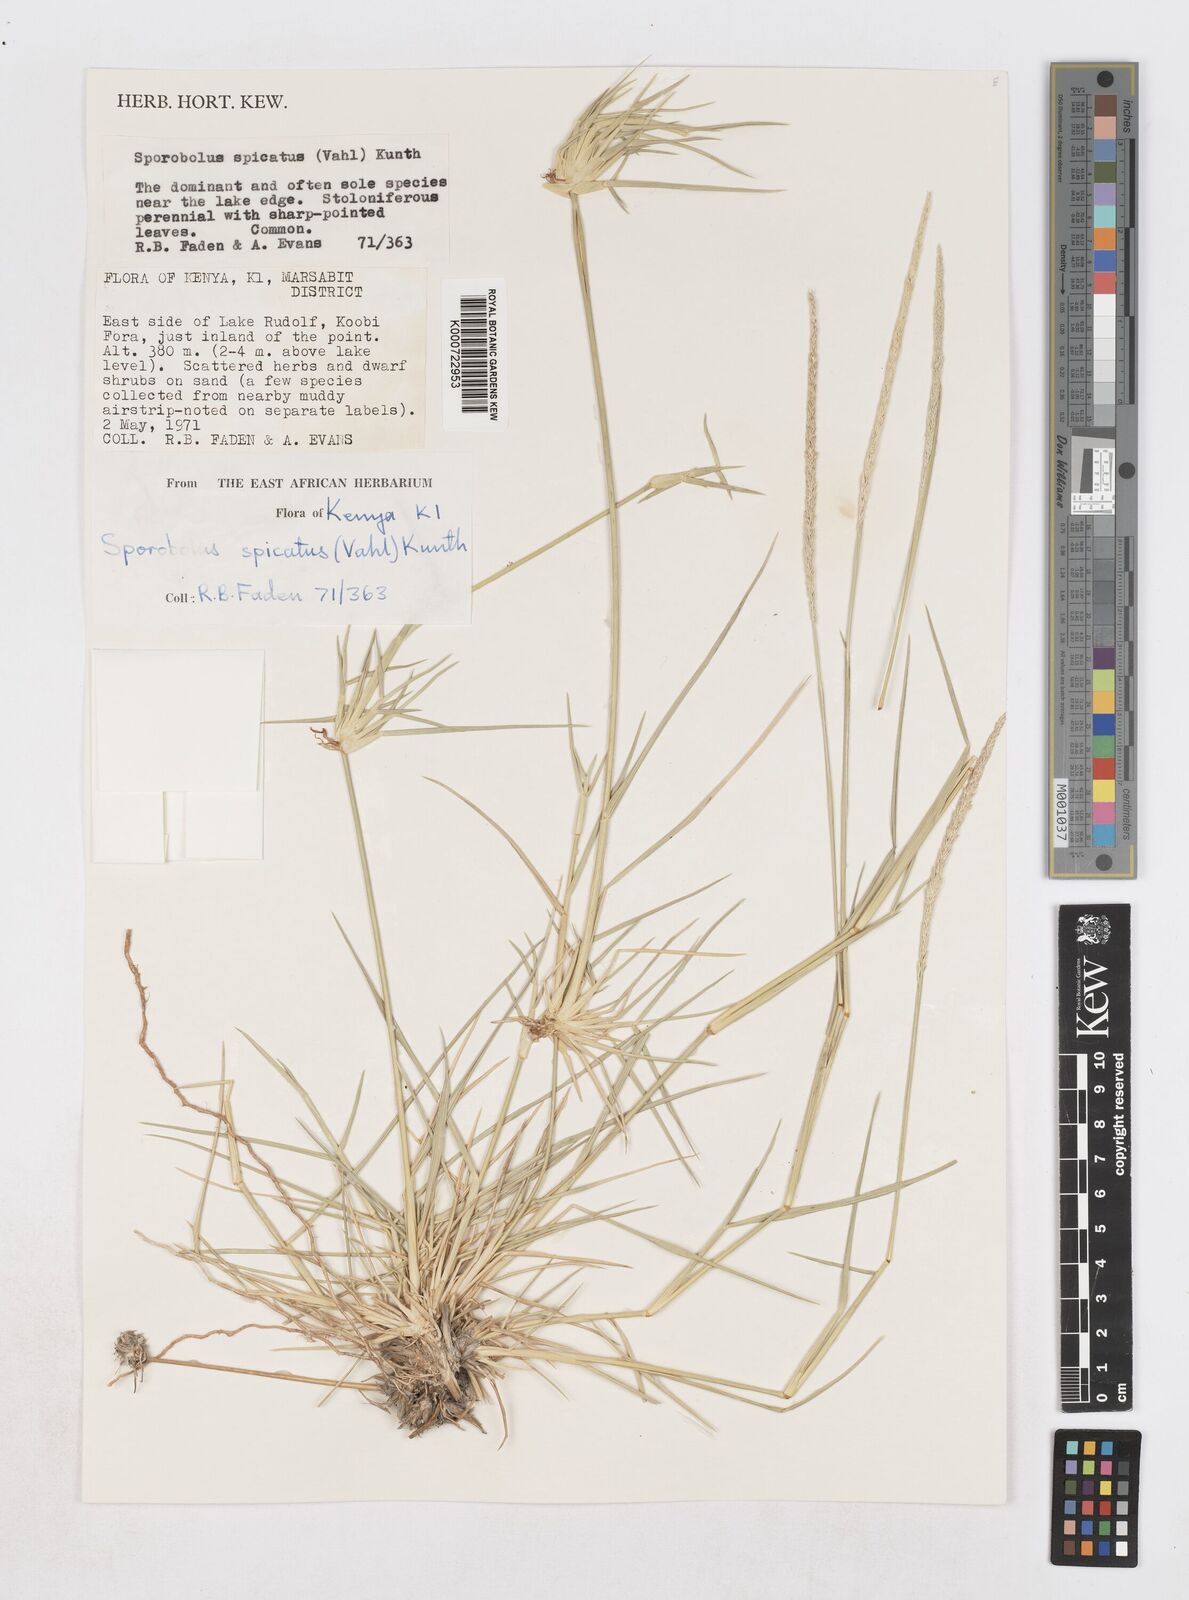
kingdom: Plantae
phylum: Tracheophyta
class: Liliopsida
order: Poales
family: Poaceae
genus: Sporobolus
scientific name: Sporobolus spicatus
